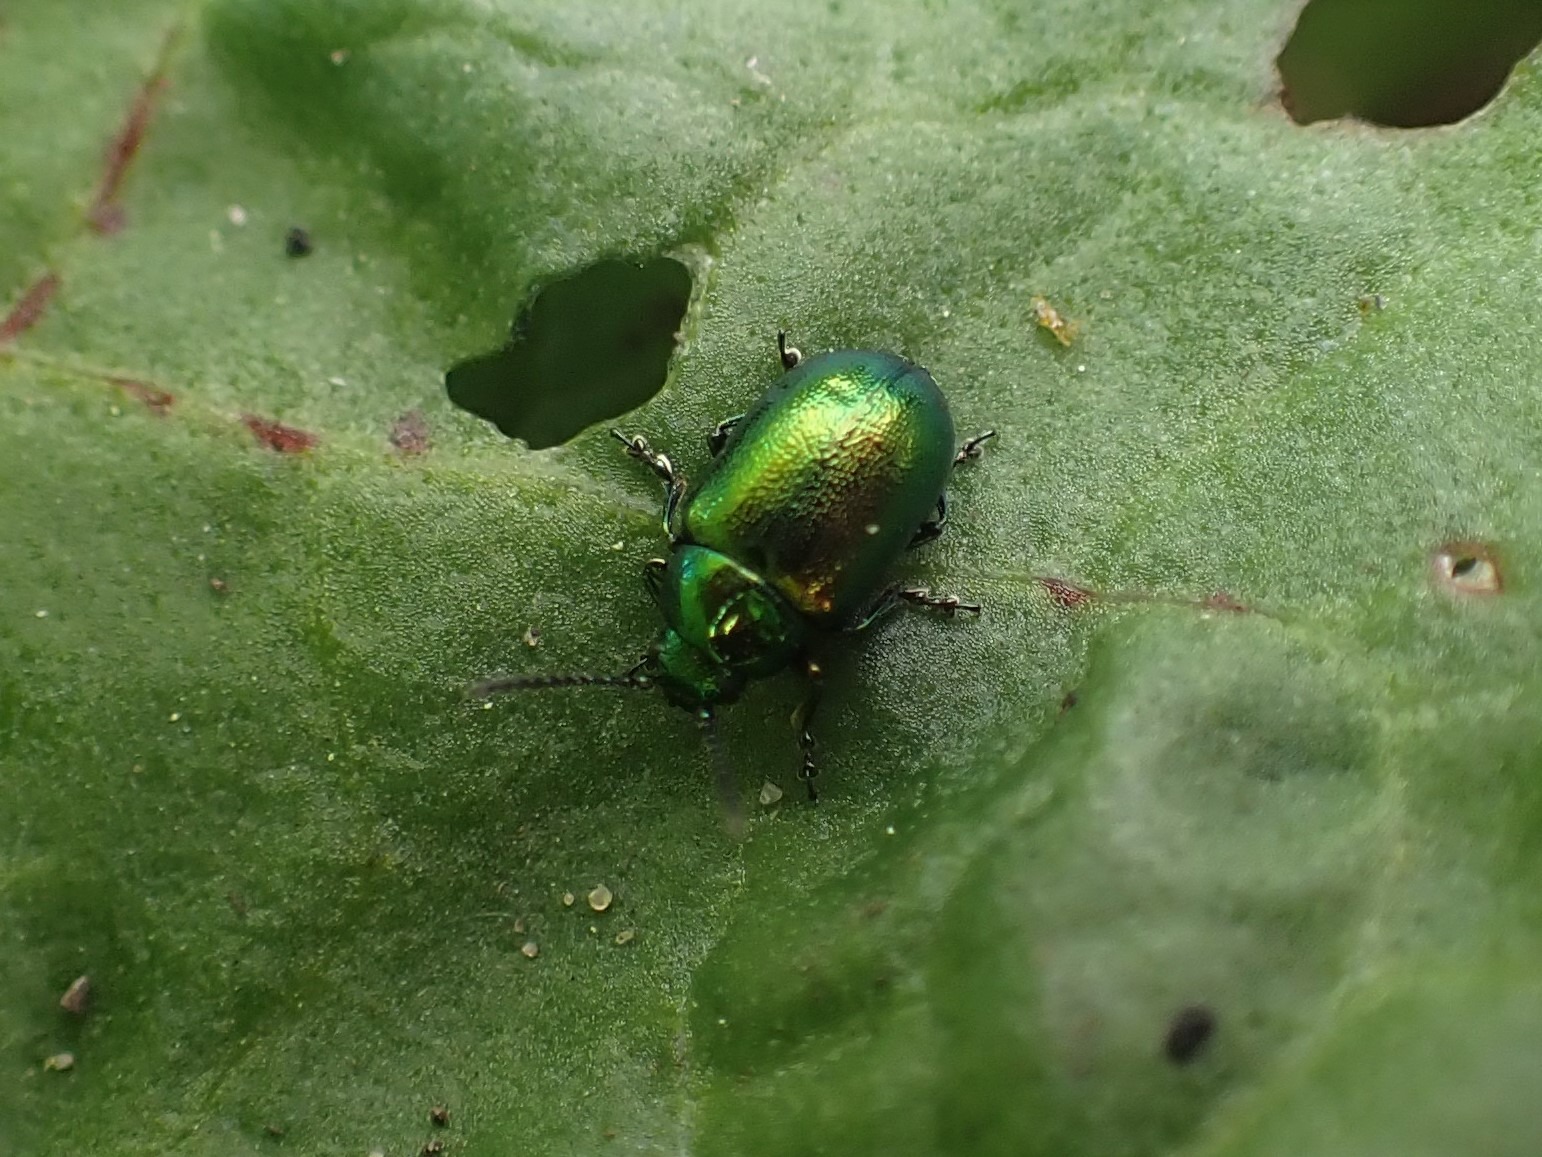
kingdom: Animalia
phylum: Arthropoda
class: Insecta
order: Coleoptera
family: Chrysomelidae
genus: Gastrophysa
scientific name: Gastrophysa viridula
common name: Skræppebladbille
